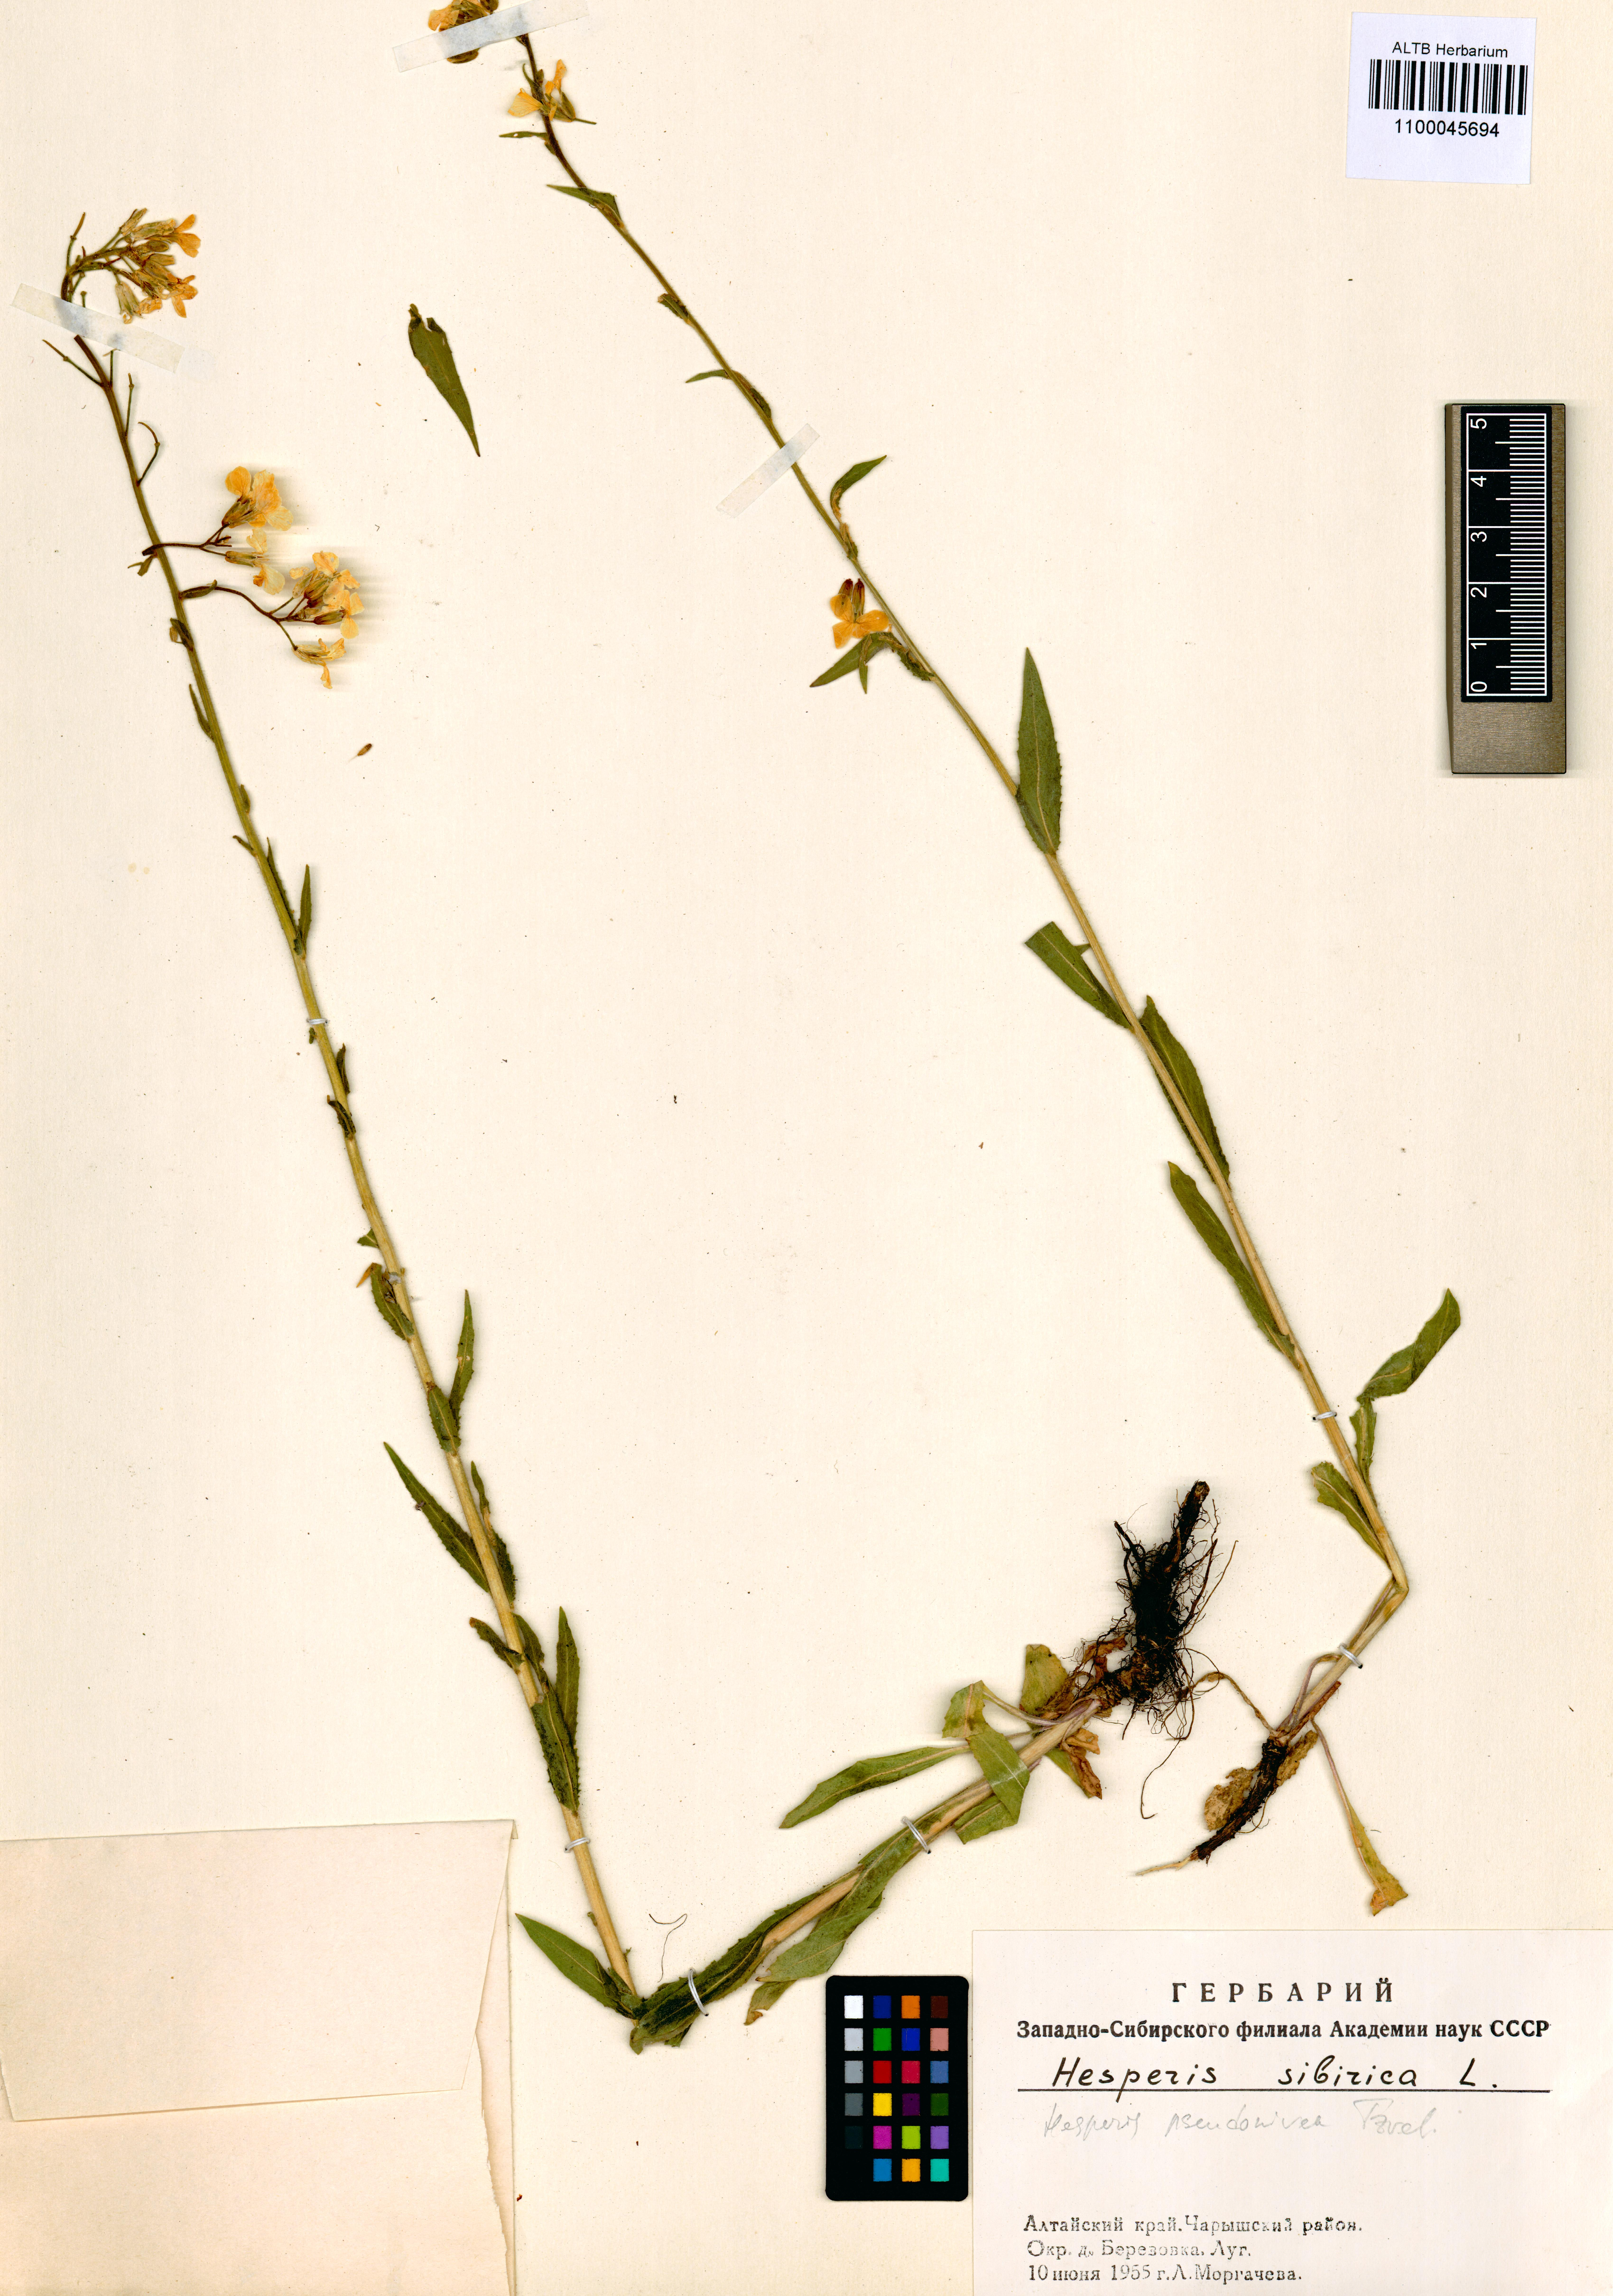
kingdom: Plantae
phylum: Tracheophyta
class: Magnoliopsida
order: Brassicales
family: Brassicaceae
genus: Hesperis
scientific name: Hesperis sibirica
